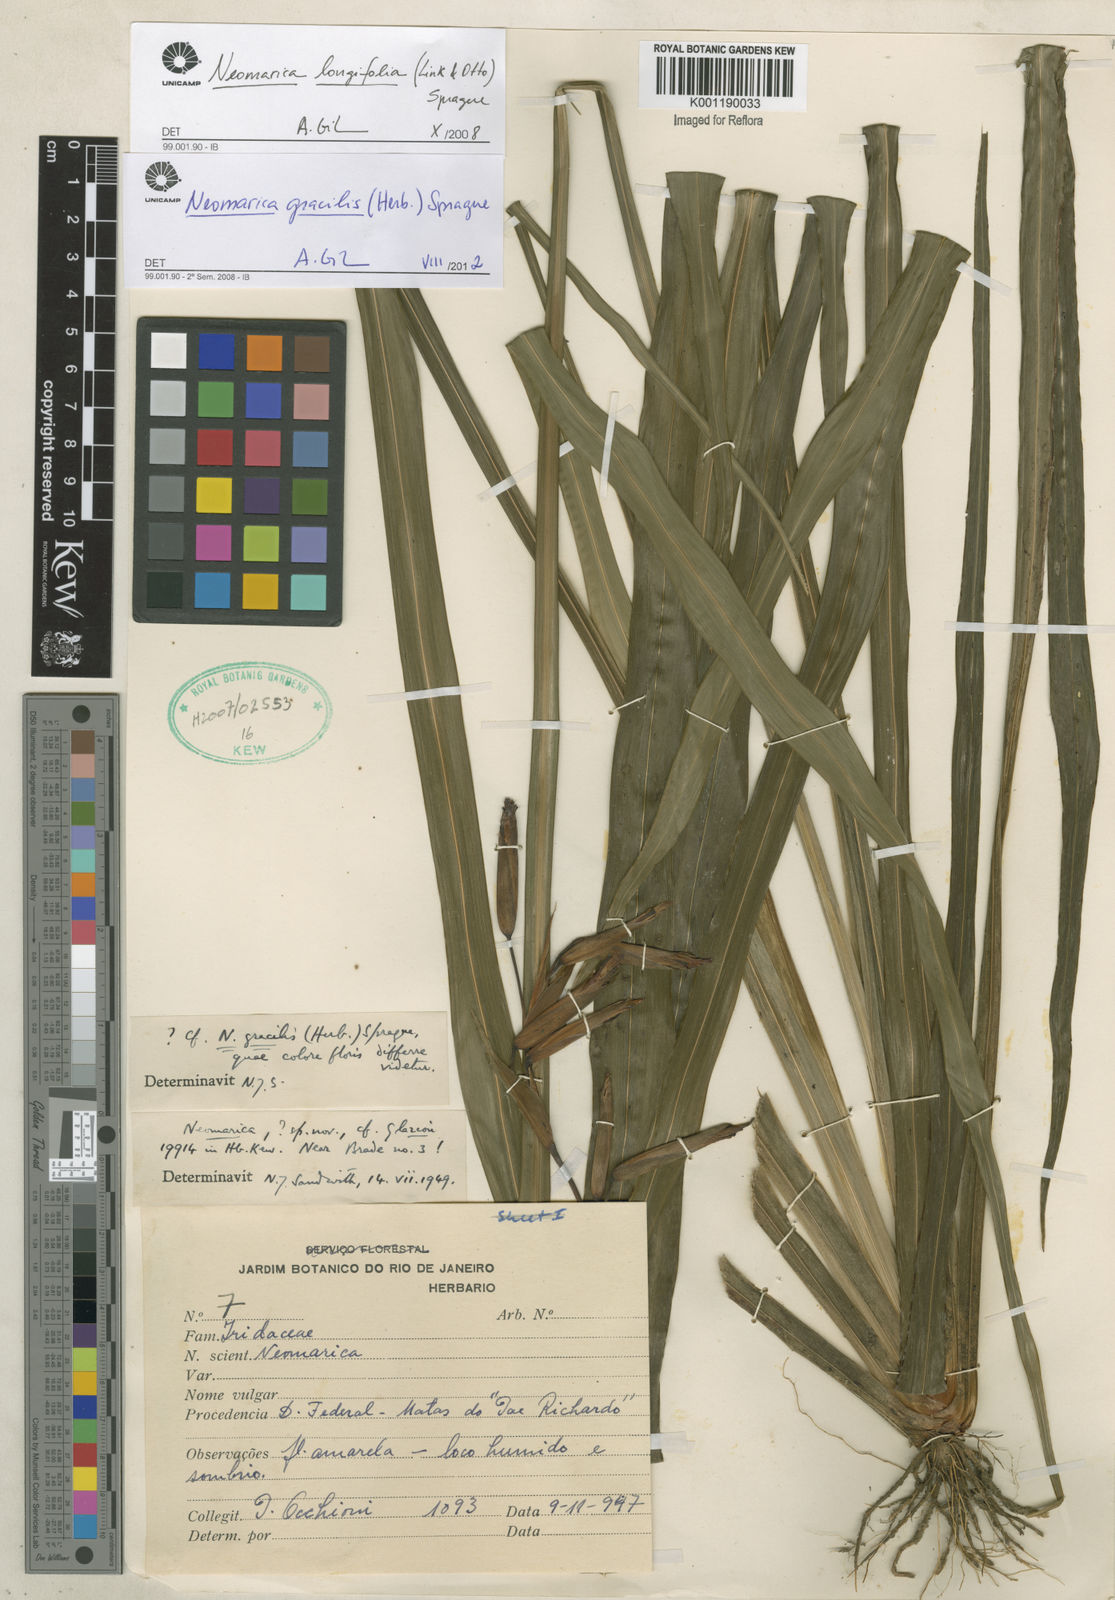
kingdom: Plantae
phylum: Tracheophyta
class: Liliopsida
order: Asparagales
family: Iridaceae
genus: Trimezia
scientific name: Trimezia gracilis
